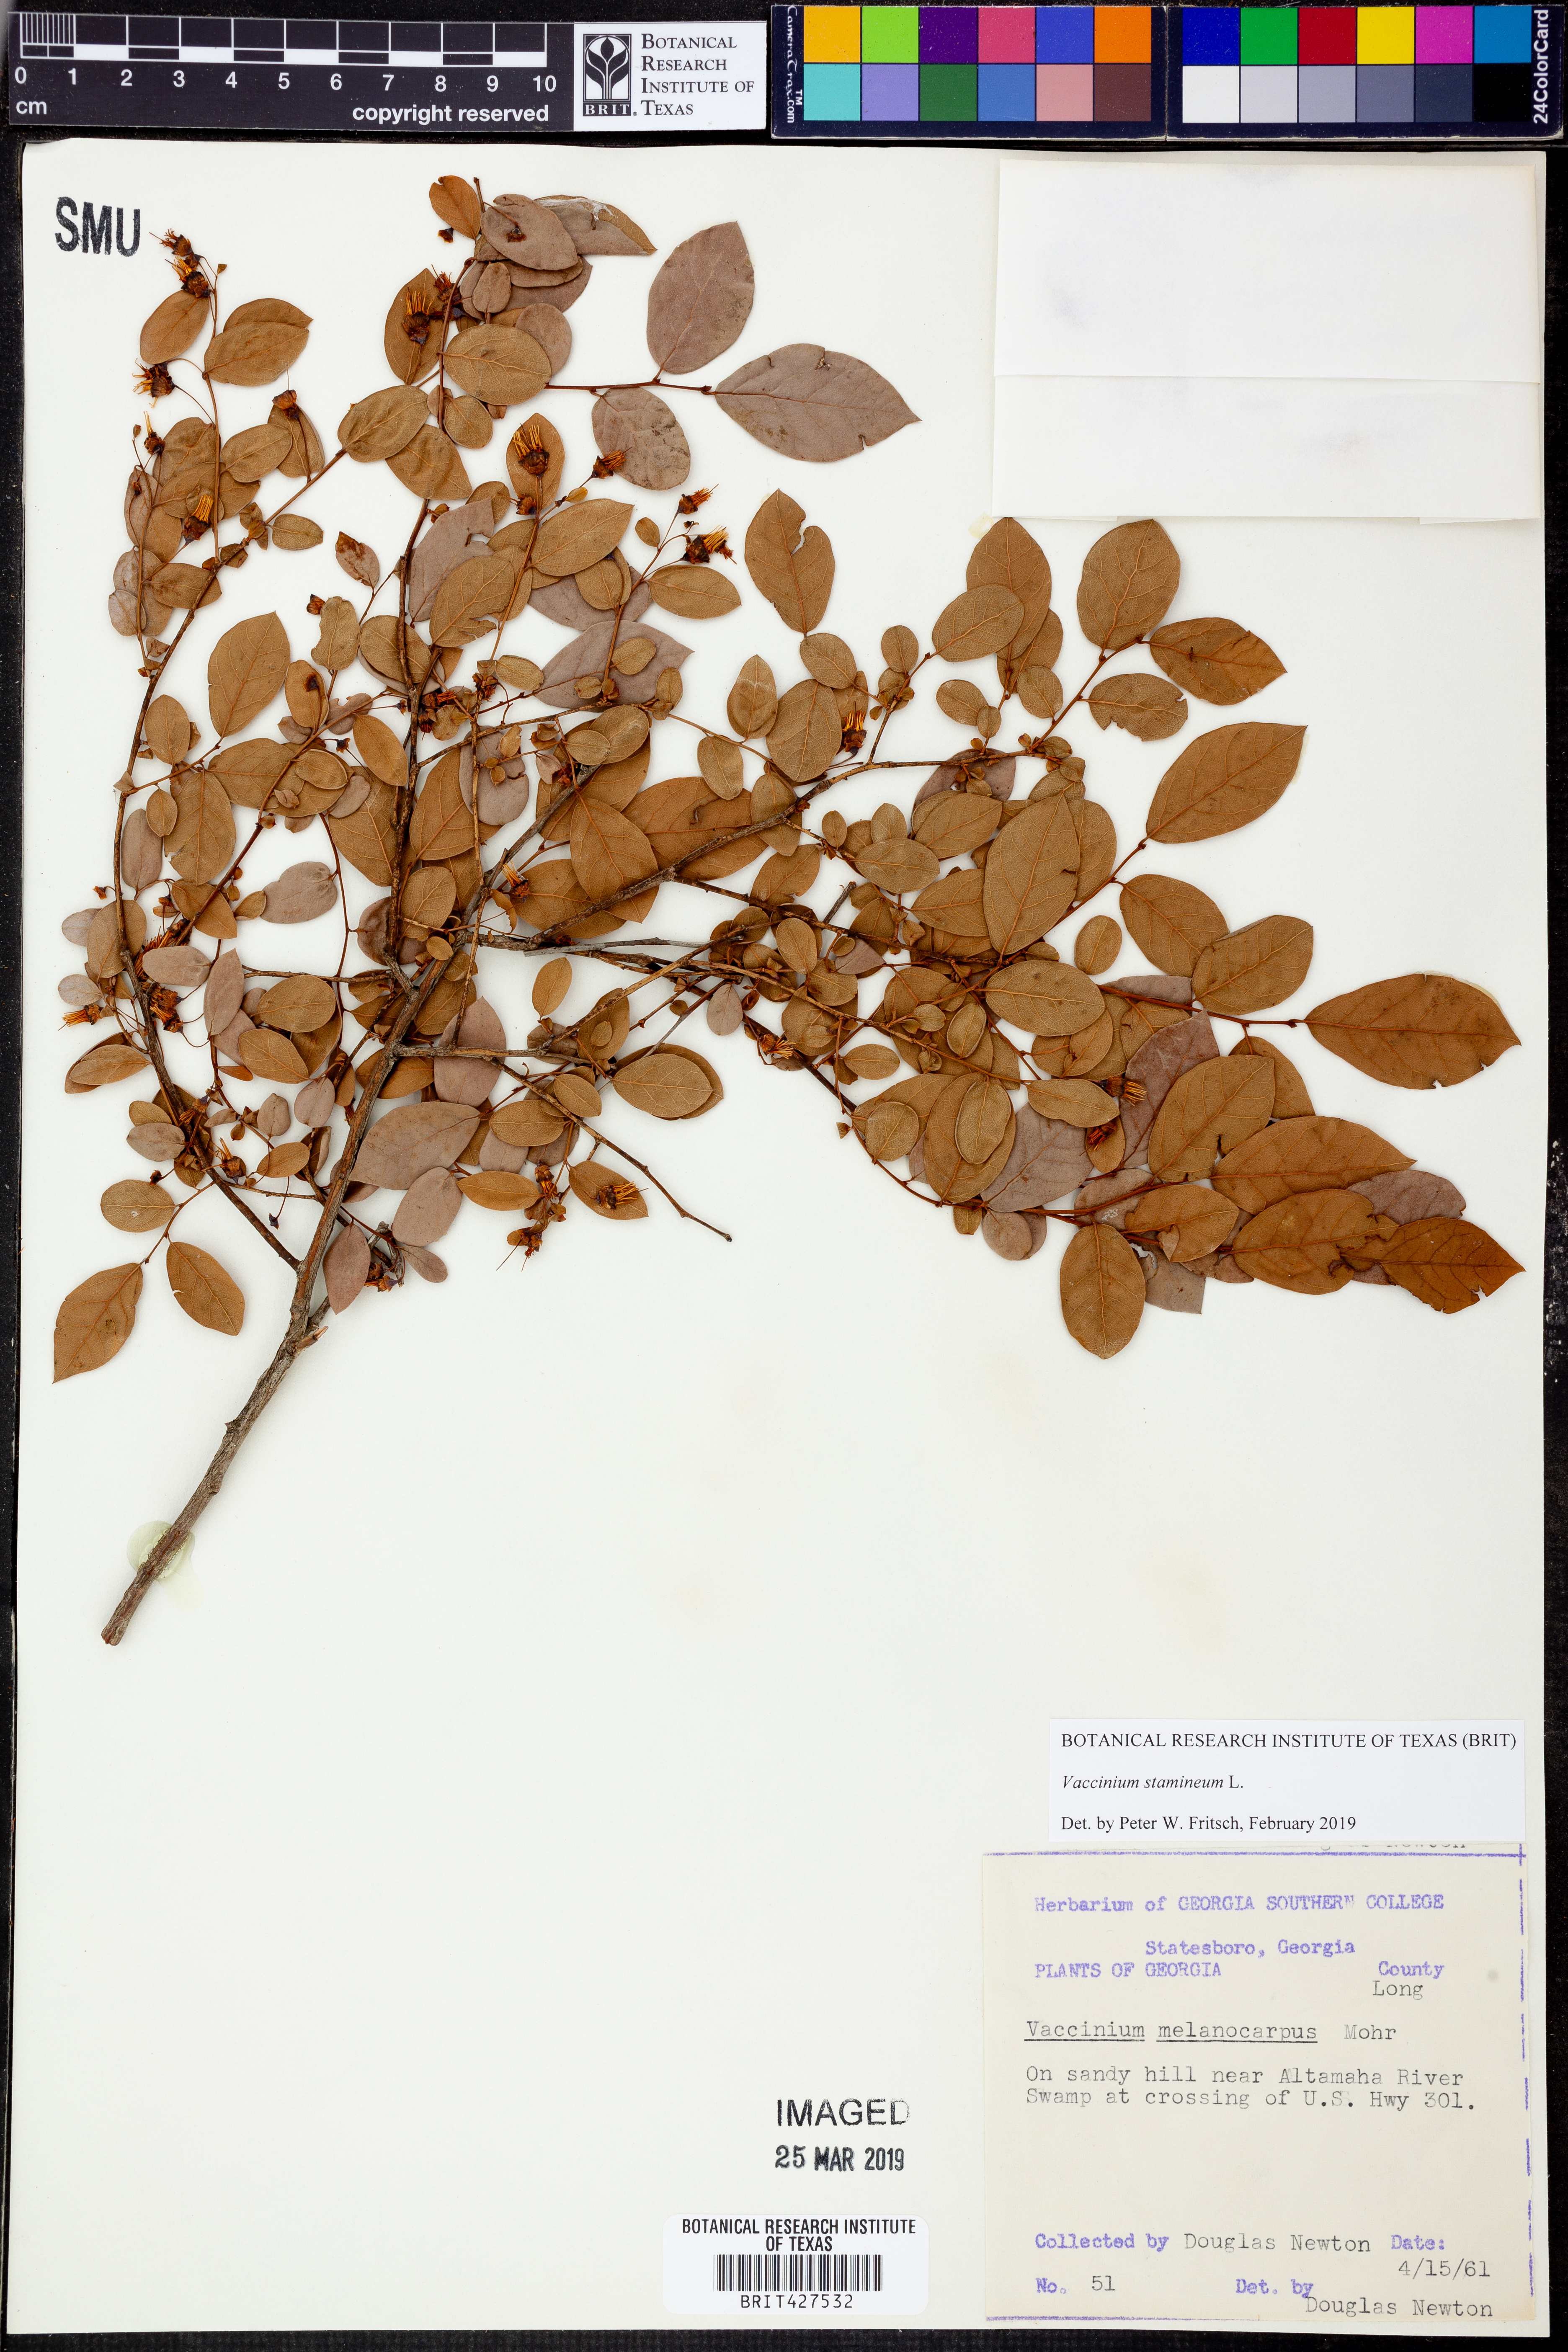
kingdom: Plantae
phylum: Tracheophyta
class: Magnoliopsida
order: Ericales
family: Ericaceae
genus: Vaccinium
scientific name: Vaccinium stamineum
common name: Deerberry
